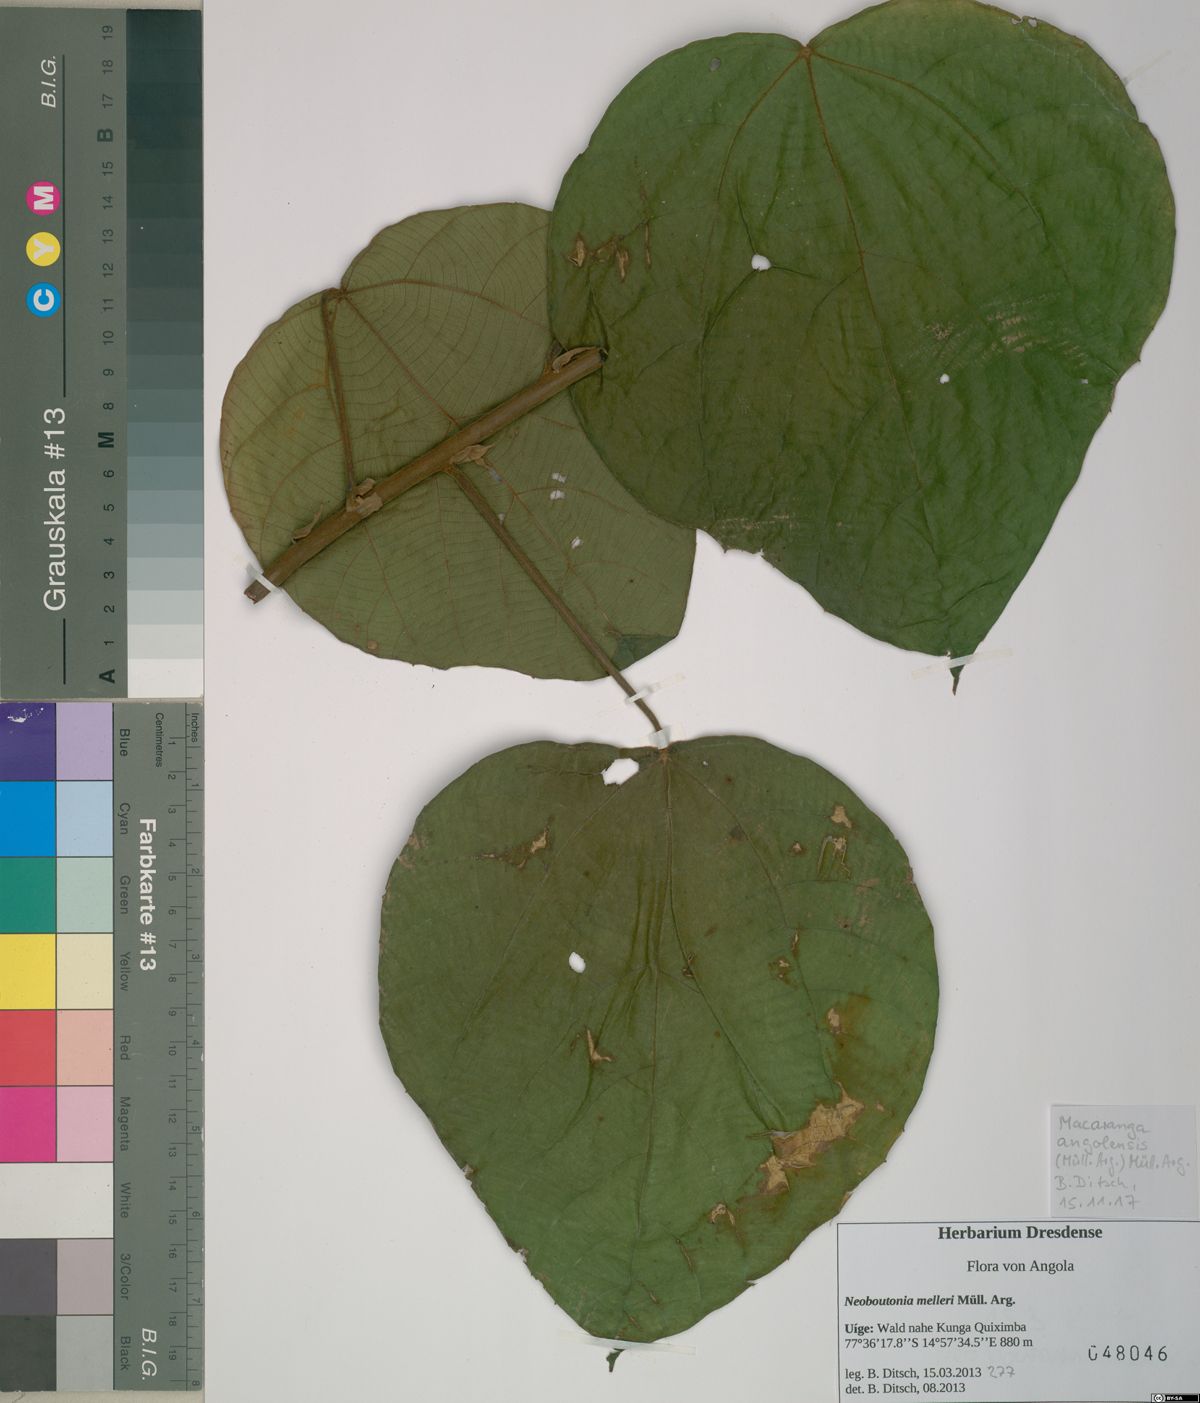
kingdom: Plantae
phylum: Tracheophyta
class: Magnoliopsida
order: Malpighiales
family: Euphorbiaceae
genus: Macaranga
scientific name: Macaranga angolensis
